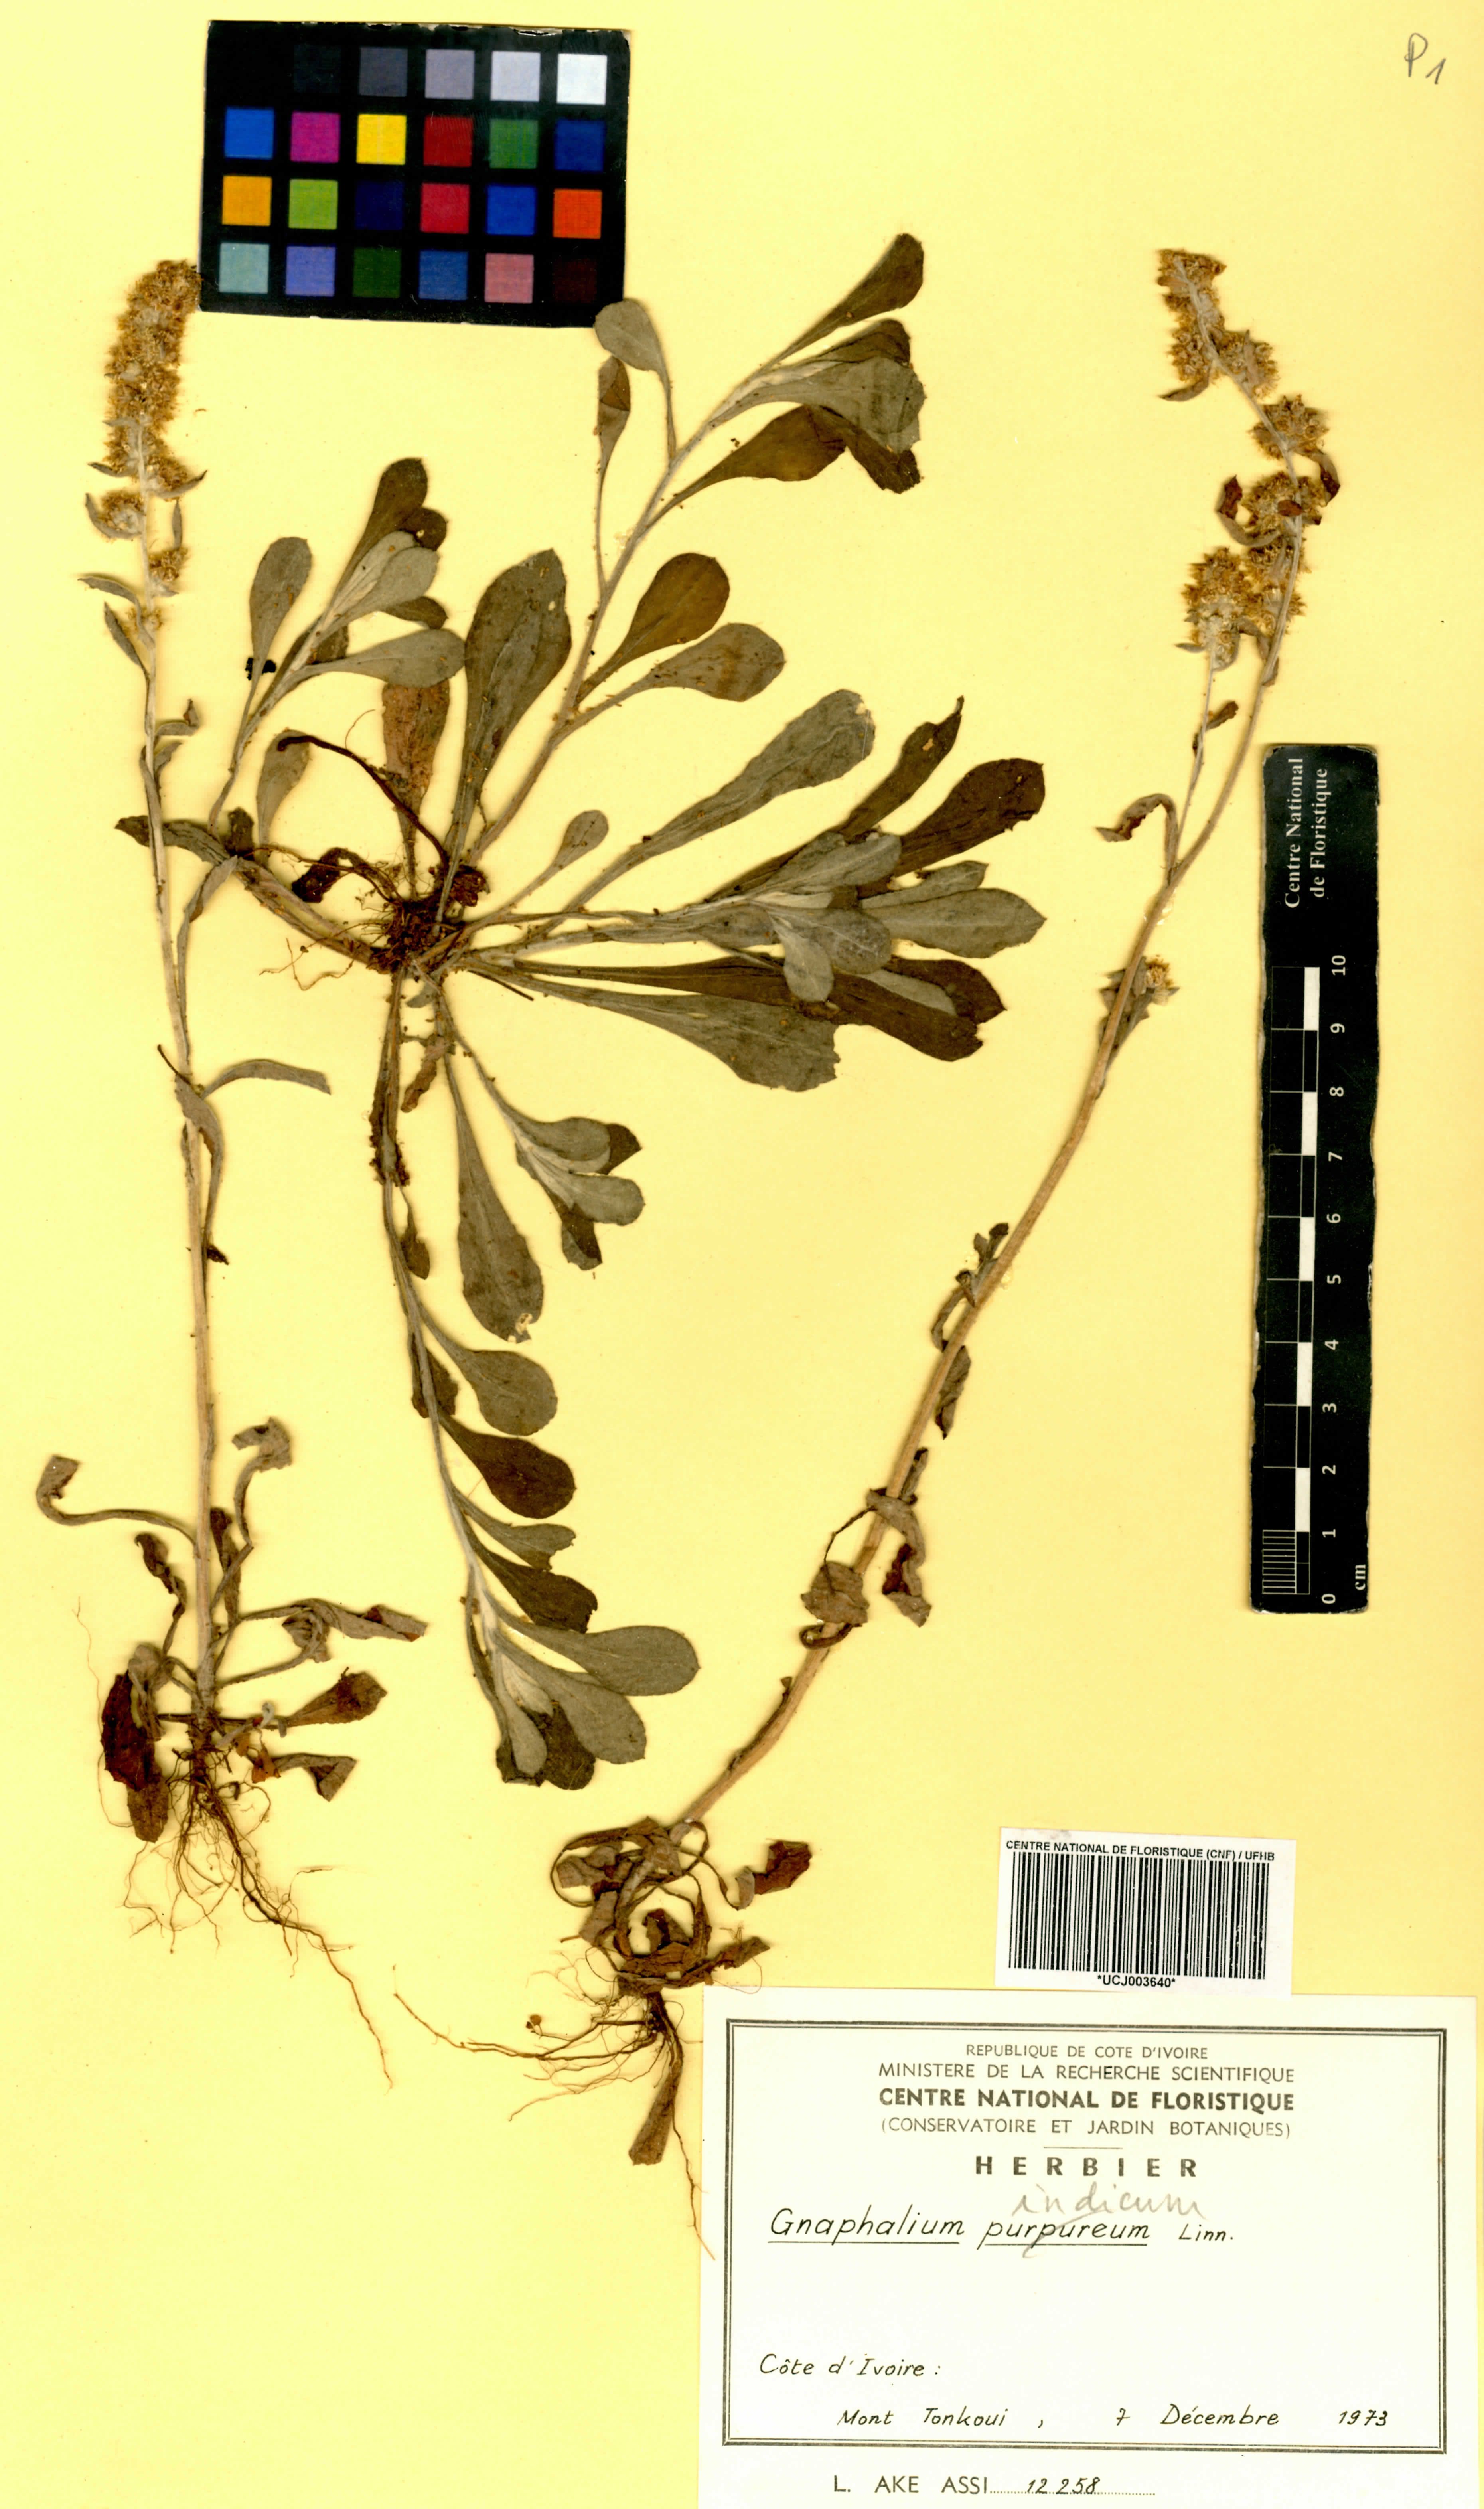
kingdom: Plantae
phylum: Tracheophyta
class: Magnoliopsida
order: Asterales
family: Asteraceae
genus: Helichrysum
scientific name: Helichrysum indicum
